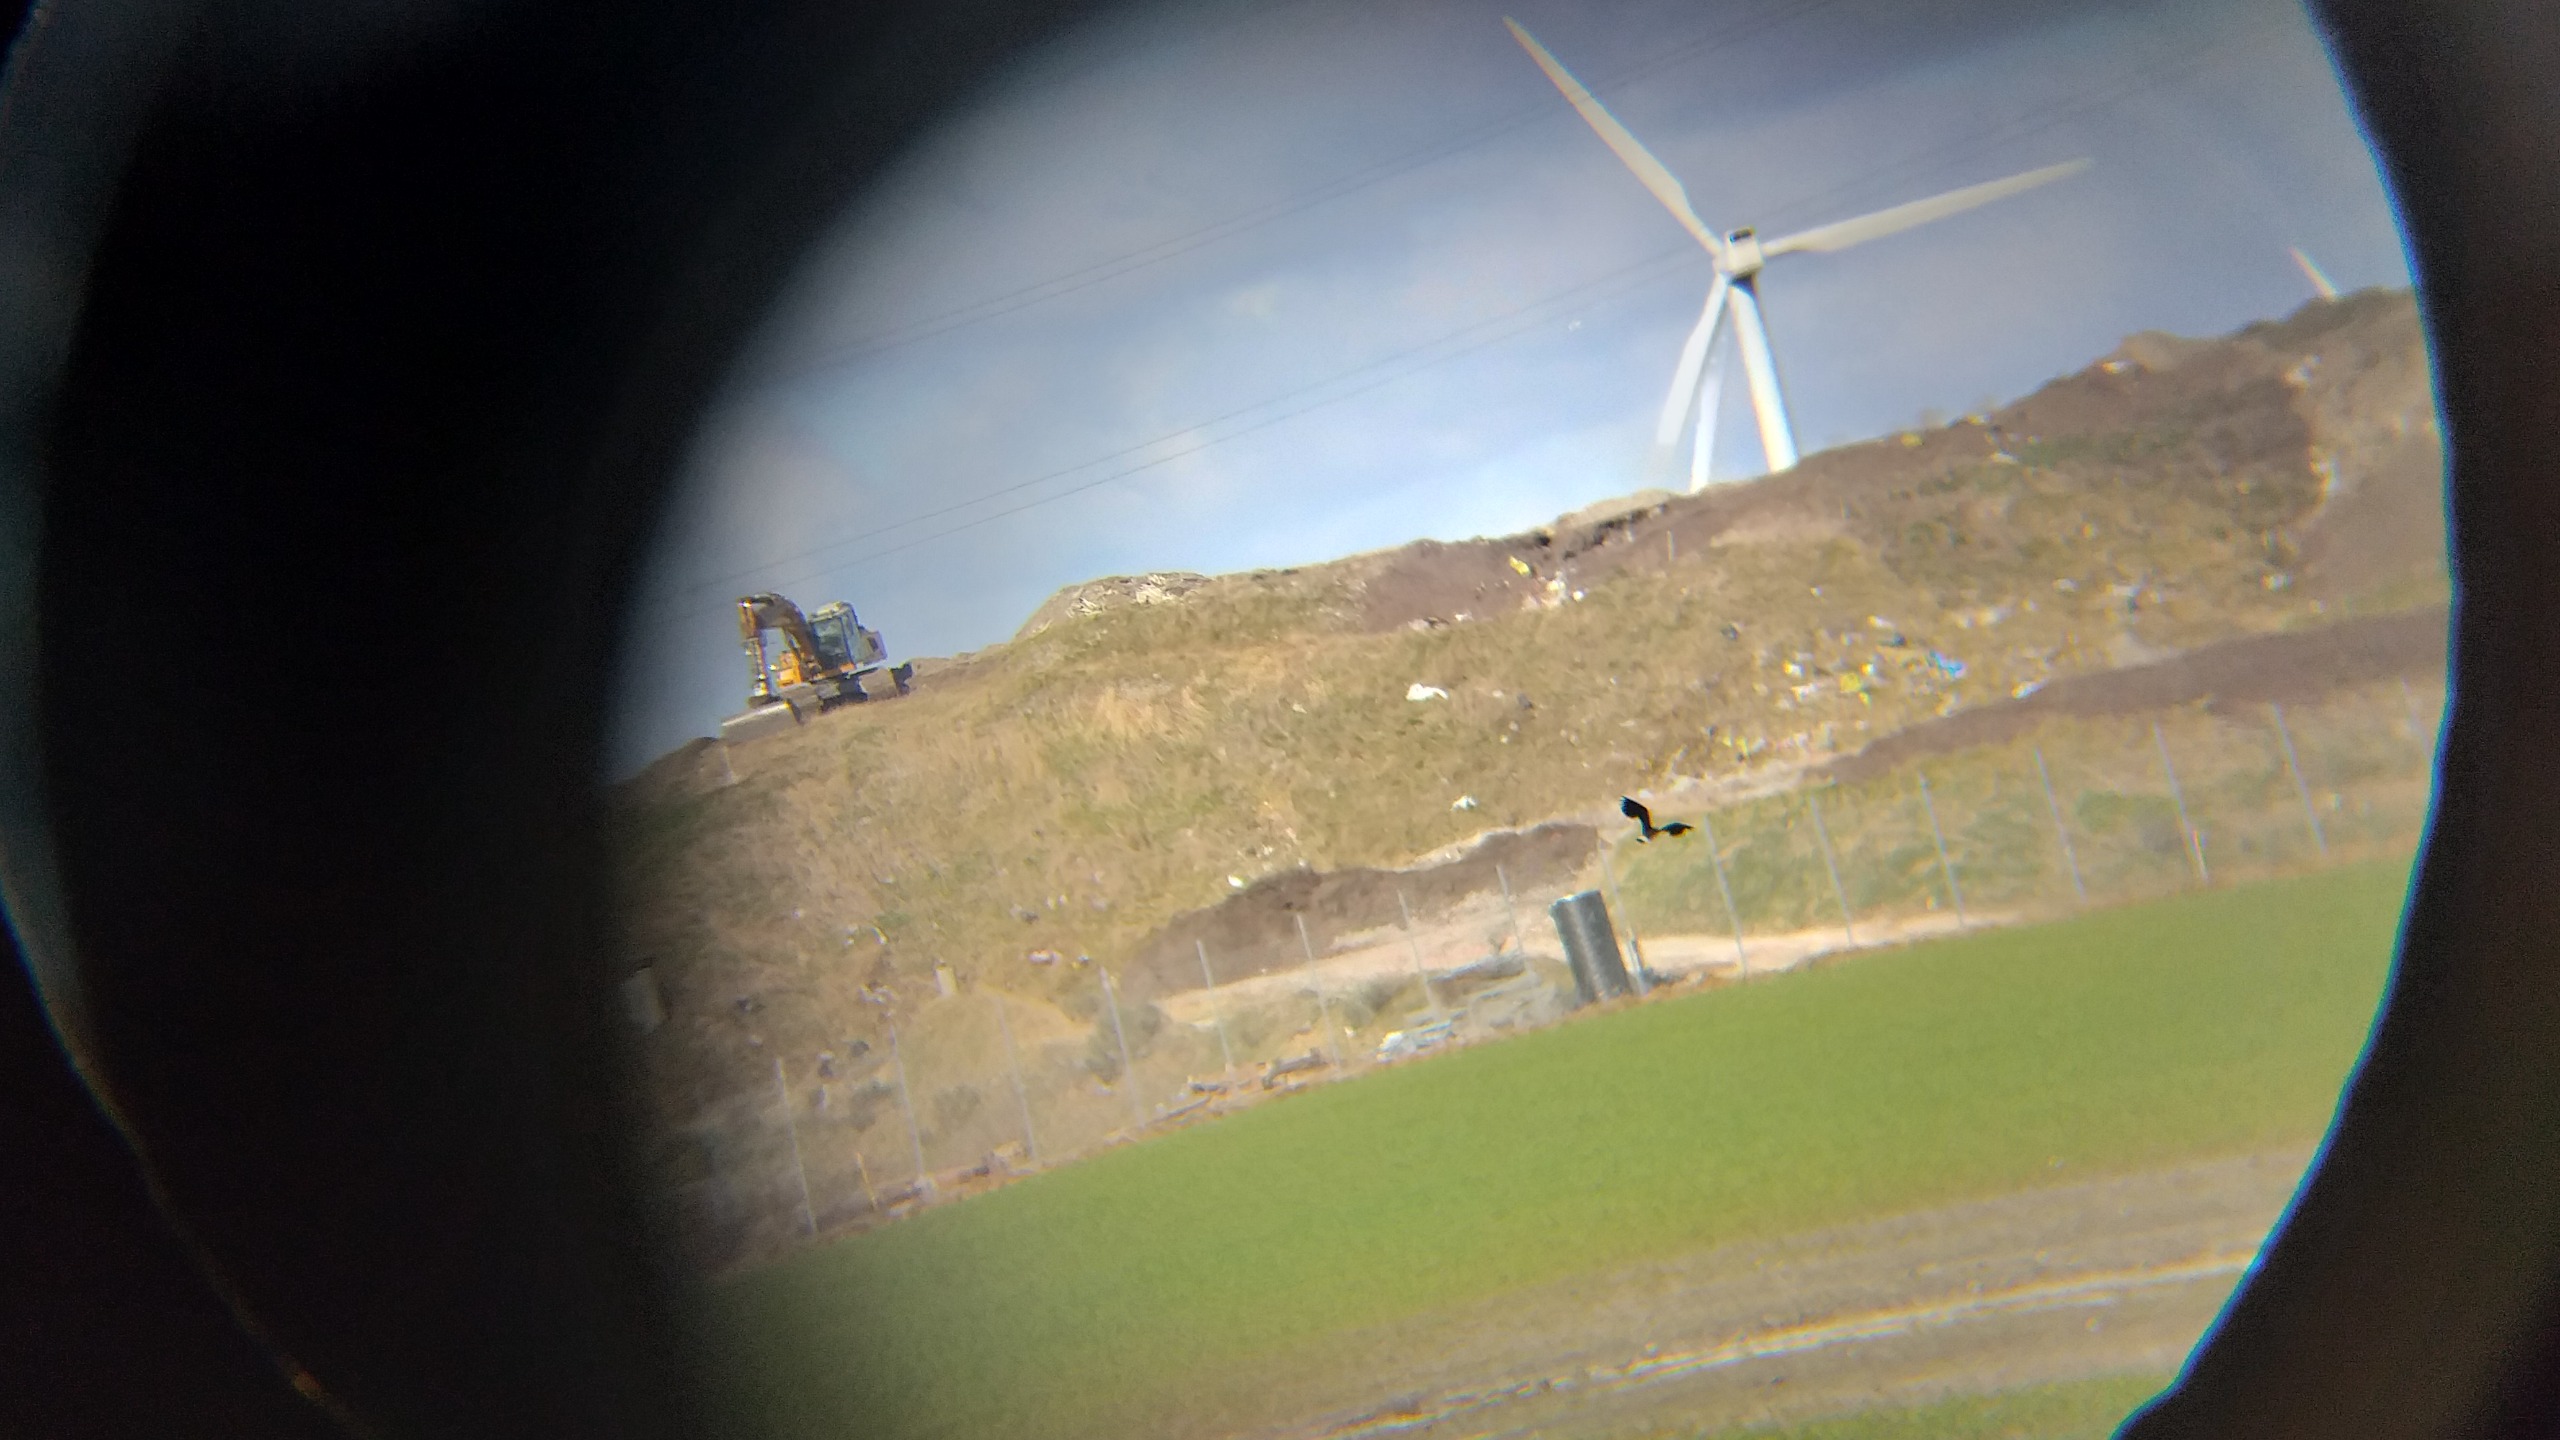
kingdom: Animalia
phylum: Chordata
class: Aves
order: Charadriiformes
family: Charadriidae
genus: Vanellus
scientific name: Vanellus vanellus
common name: Vibe
